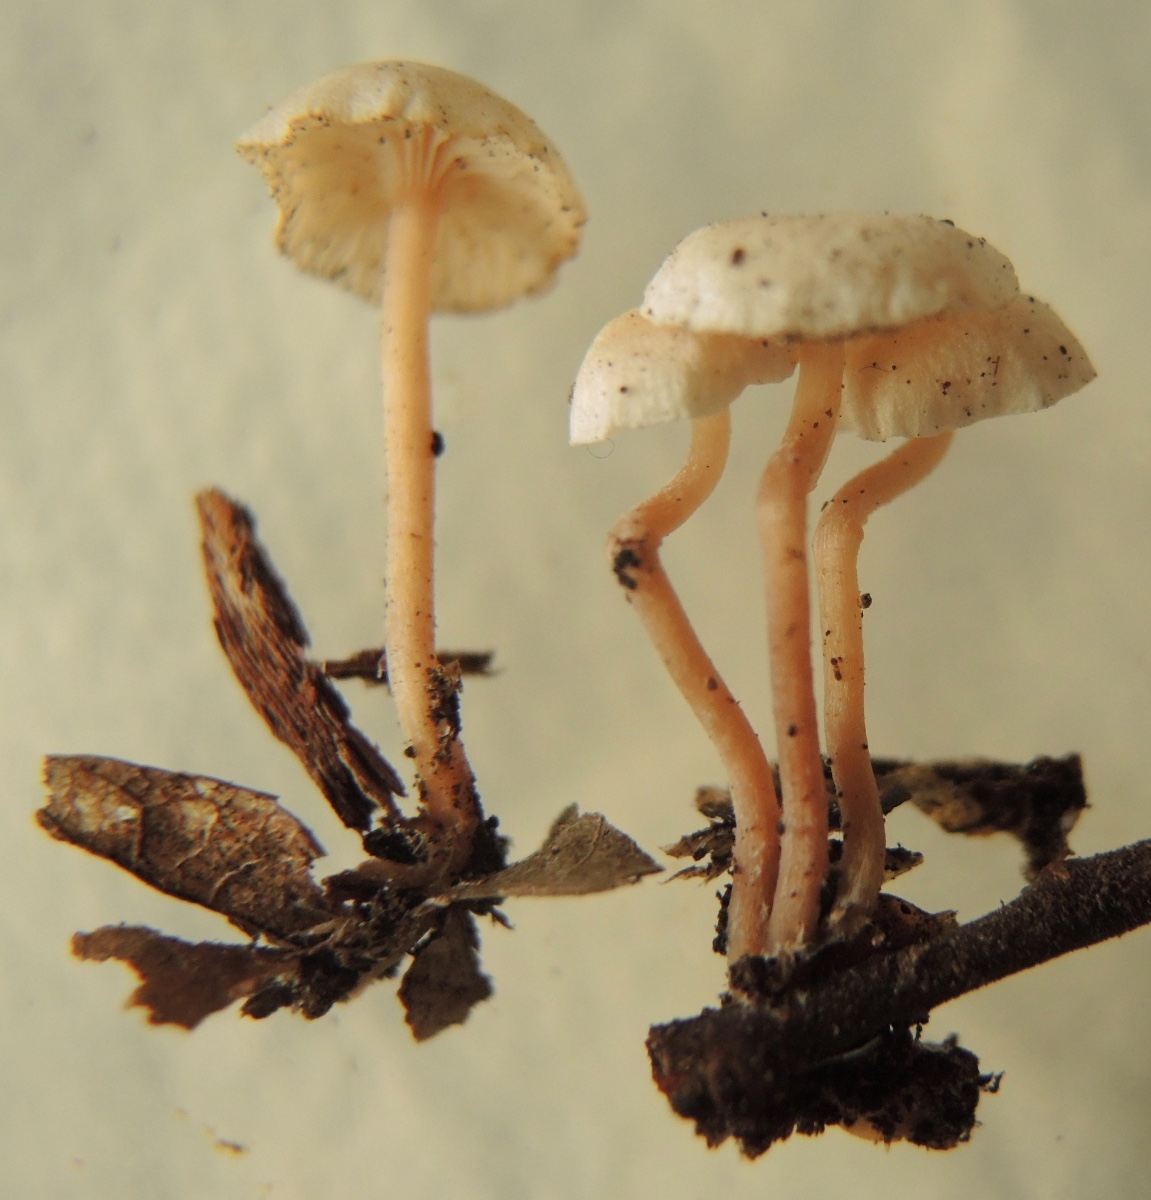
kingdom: Fungi
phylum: Basidiomycota
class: Agaricomycetes
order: Agaricales
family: Tricholomataceae
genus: Collybia
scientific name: Collybia cookei
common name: gulknoldet lighat
